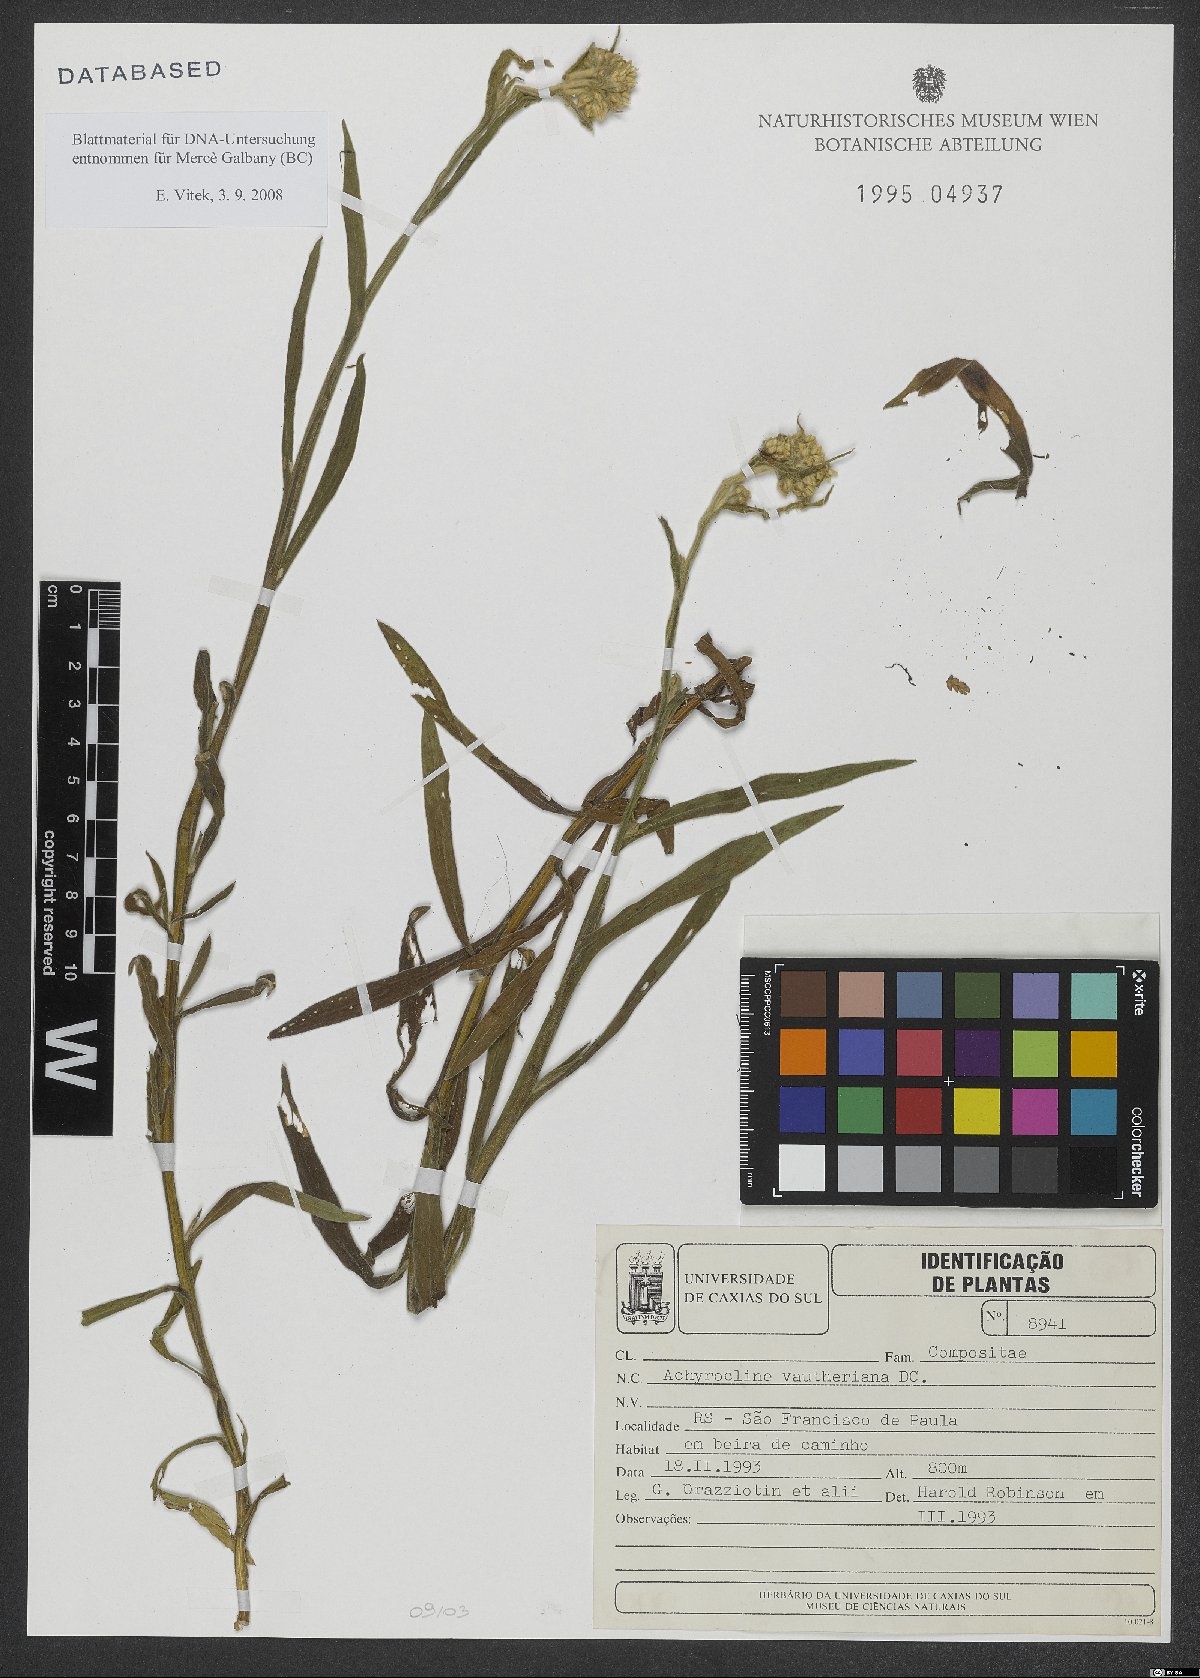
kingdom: Plantae
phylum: Tracheophyta
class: Magnoliopsida
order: Asterales
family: Asteraceae
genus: Achyrocline
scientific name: Achyrocline vauthieriana
